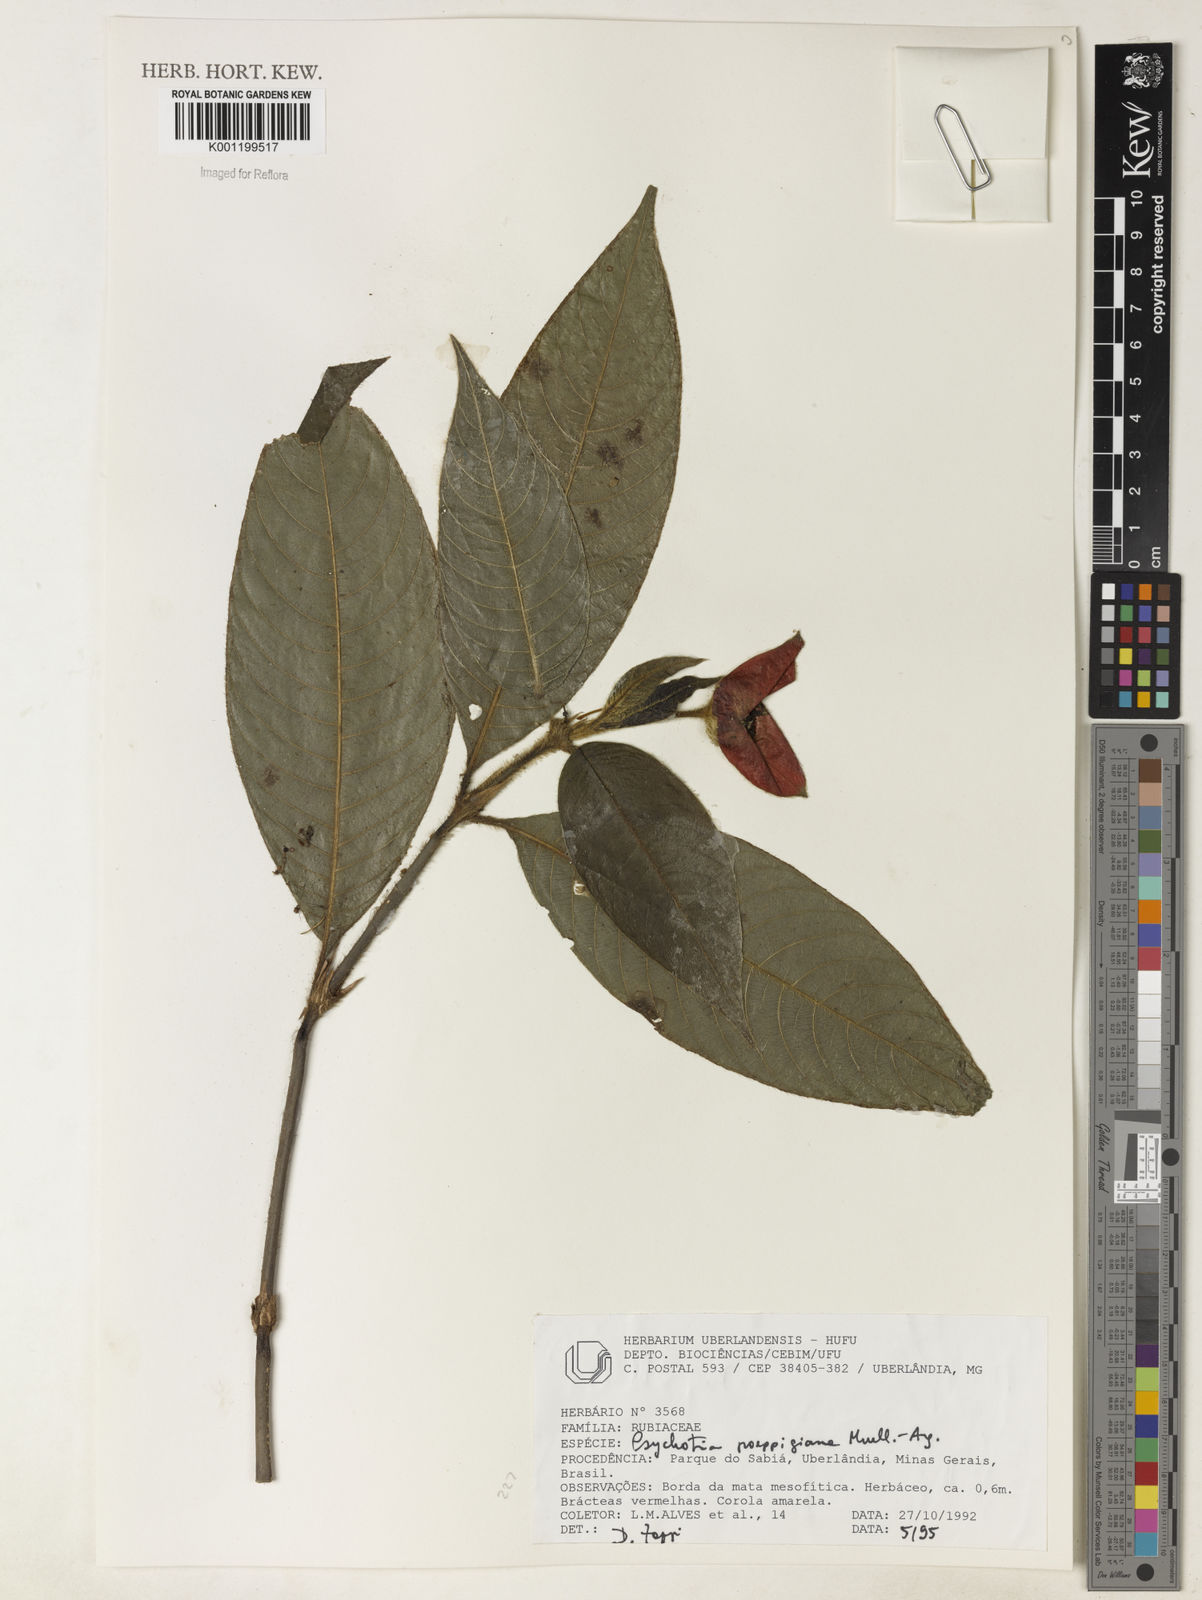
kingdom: Plantae
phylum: Tracheophyta
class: Magnoliopsida
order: Gentianales
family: Rubiaceae
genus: Psychotria
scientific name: Psychotria
